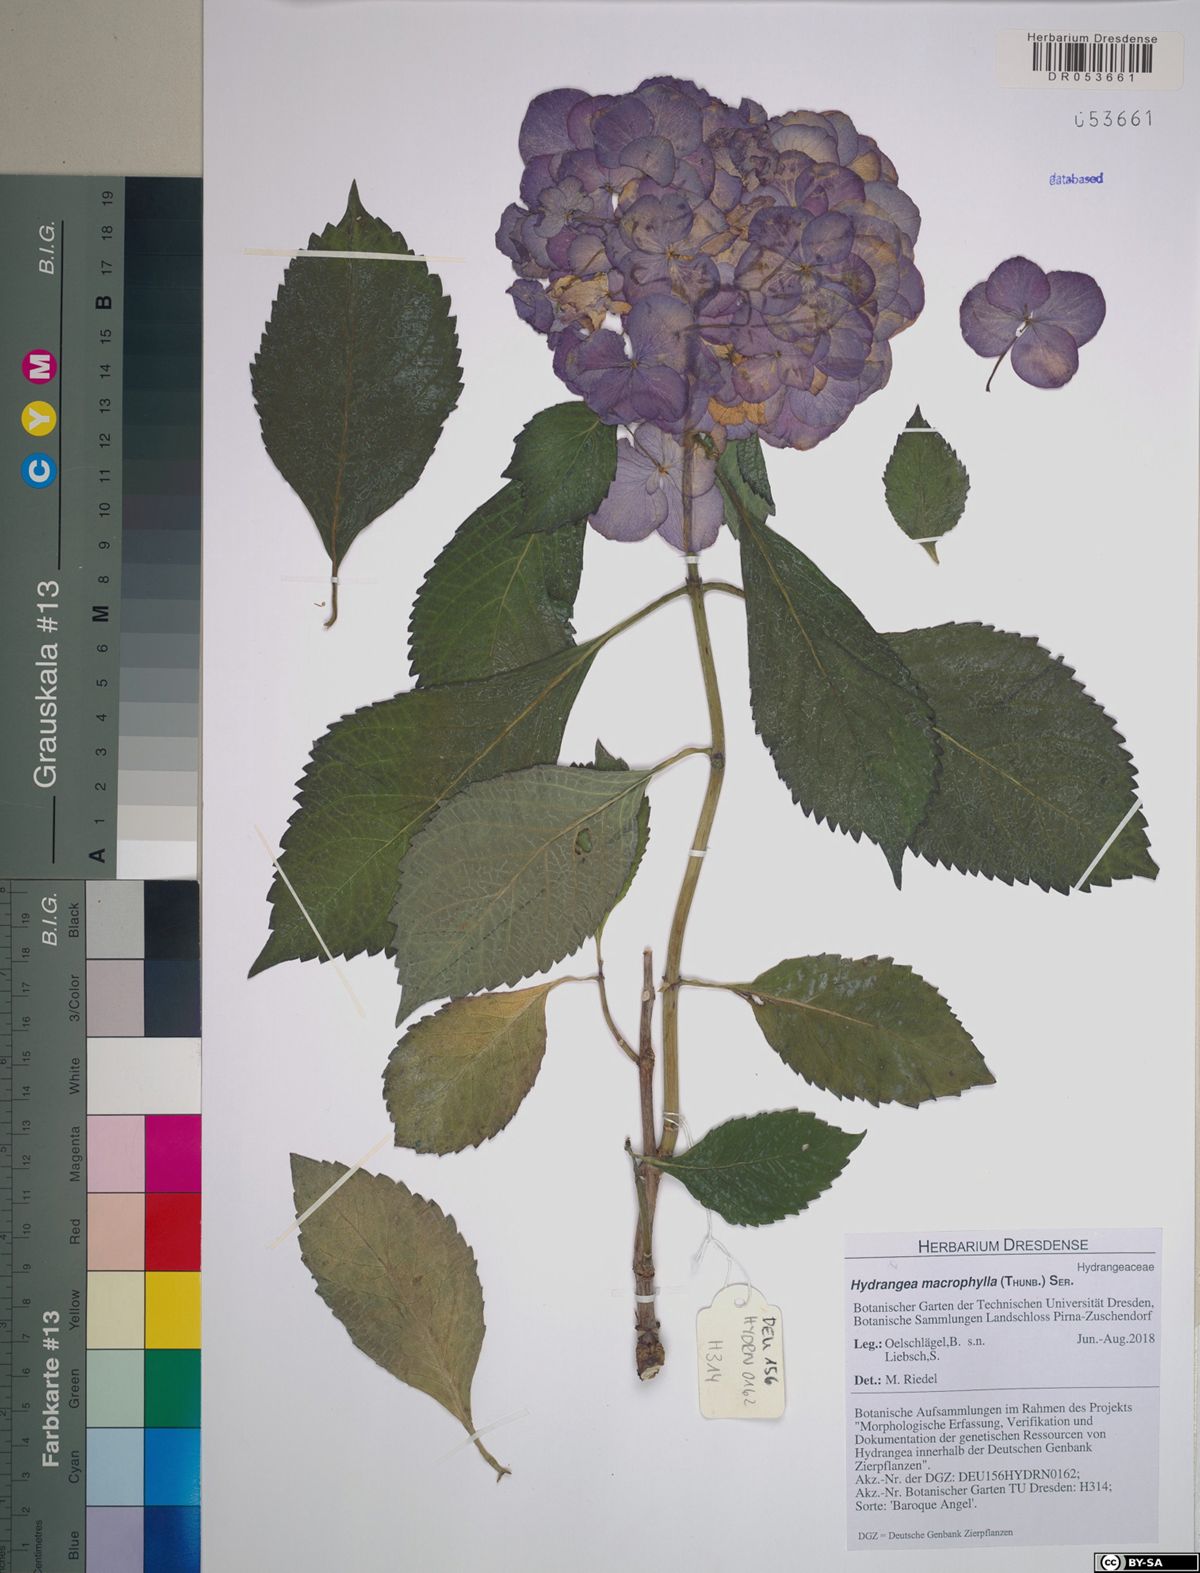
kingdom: Plantae
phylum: Tracheophyta
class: Magnoliopsida
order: Cornales
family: Hydrangeaceae
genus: Hydrangea
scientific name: Hydrangea macrophylla
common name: Hydrangea
